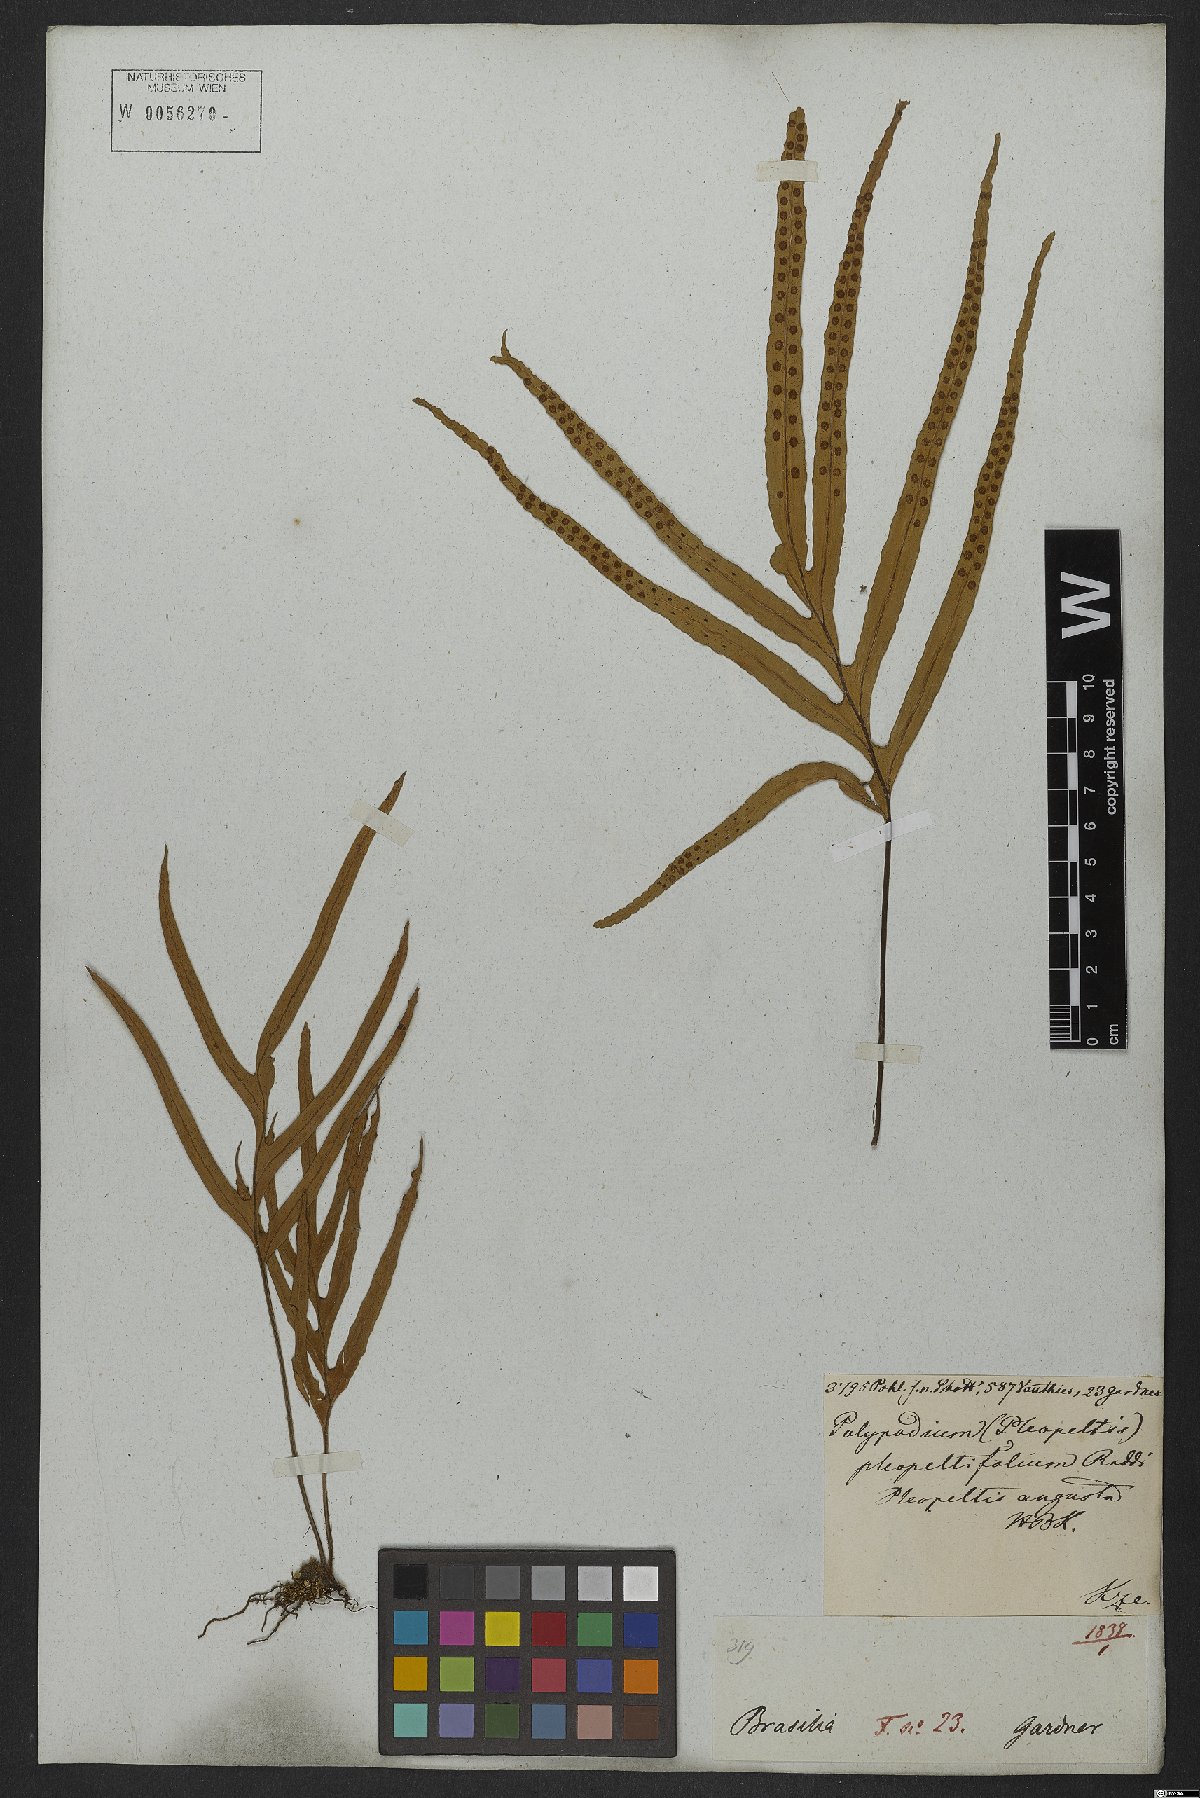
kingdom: Plantae
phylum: Tracheophyta
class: Polypodiopsida
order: Polypodiales
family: Polypodiaceae
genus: Pleopeltis
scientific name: Pleopeltis angusta
